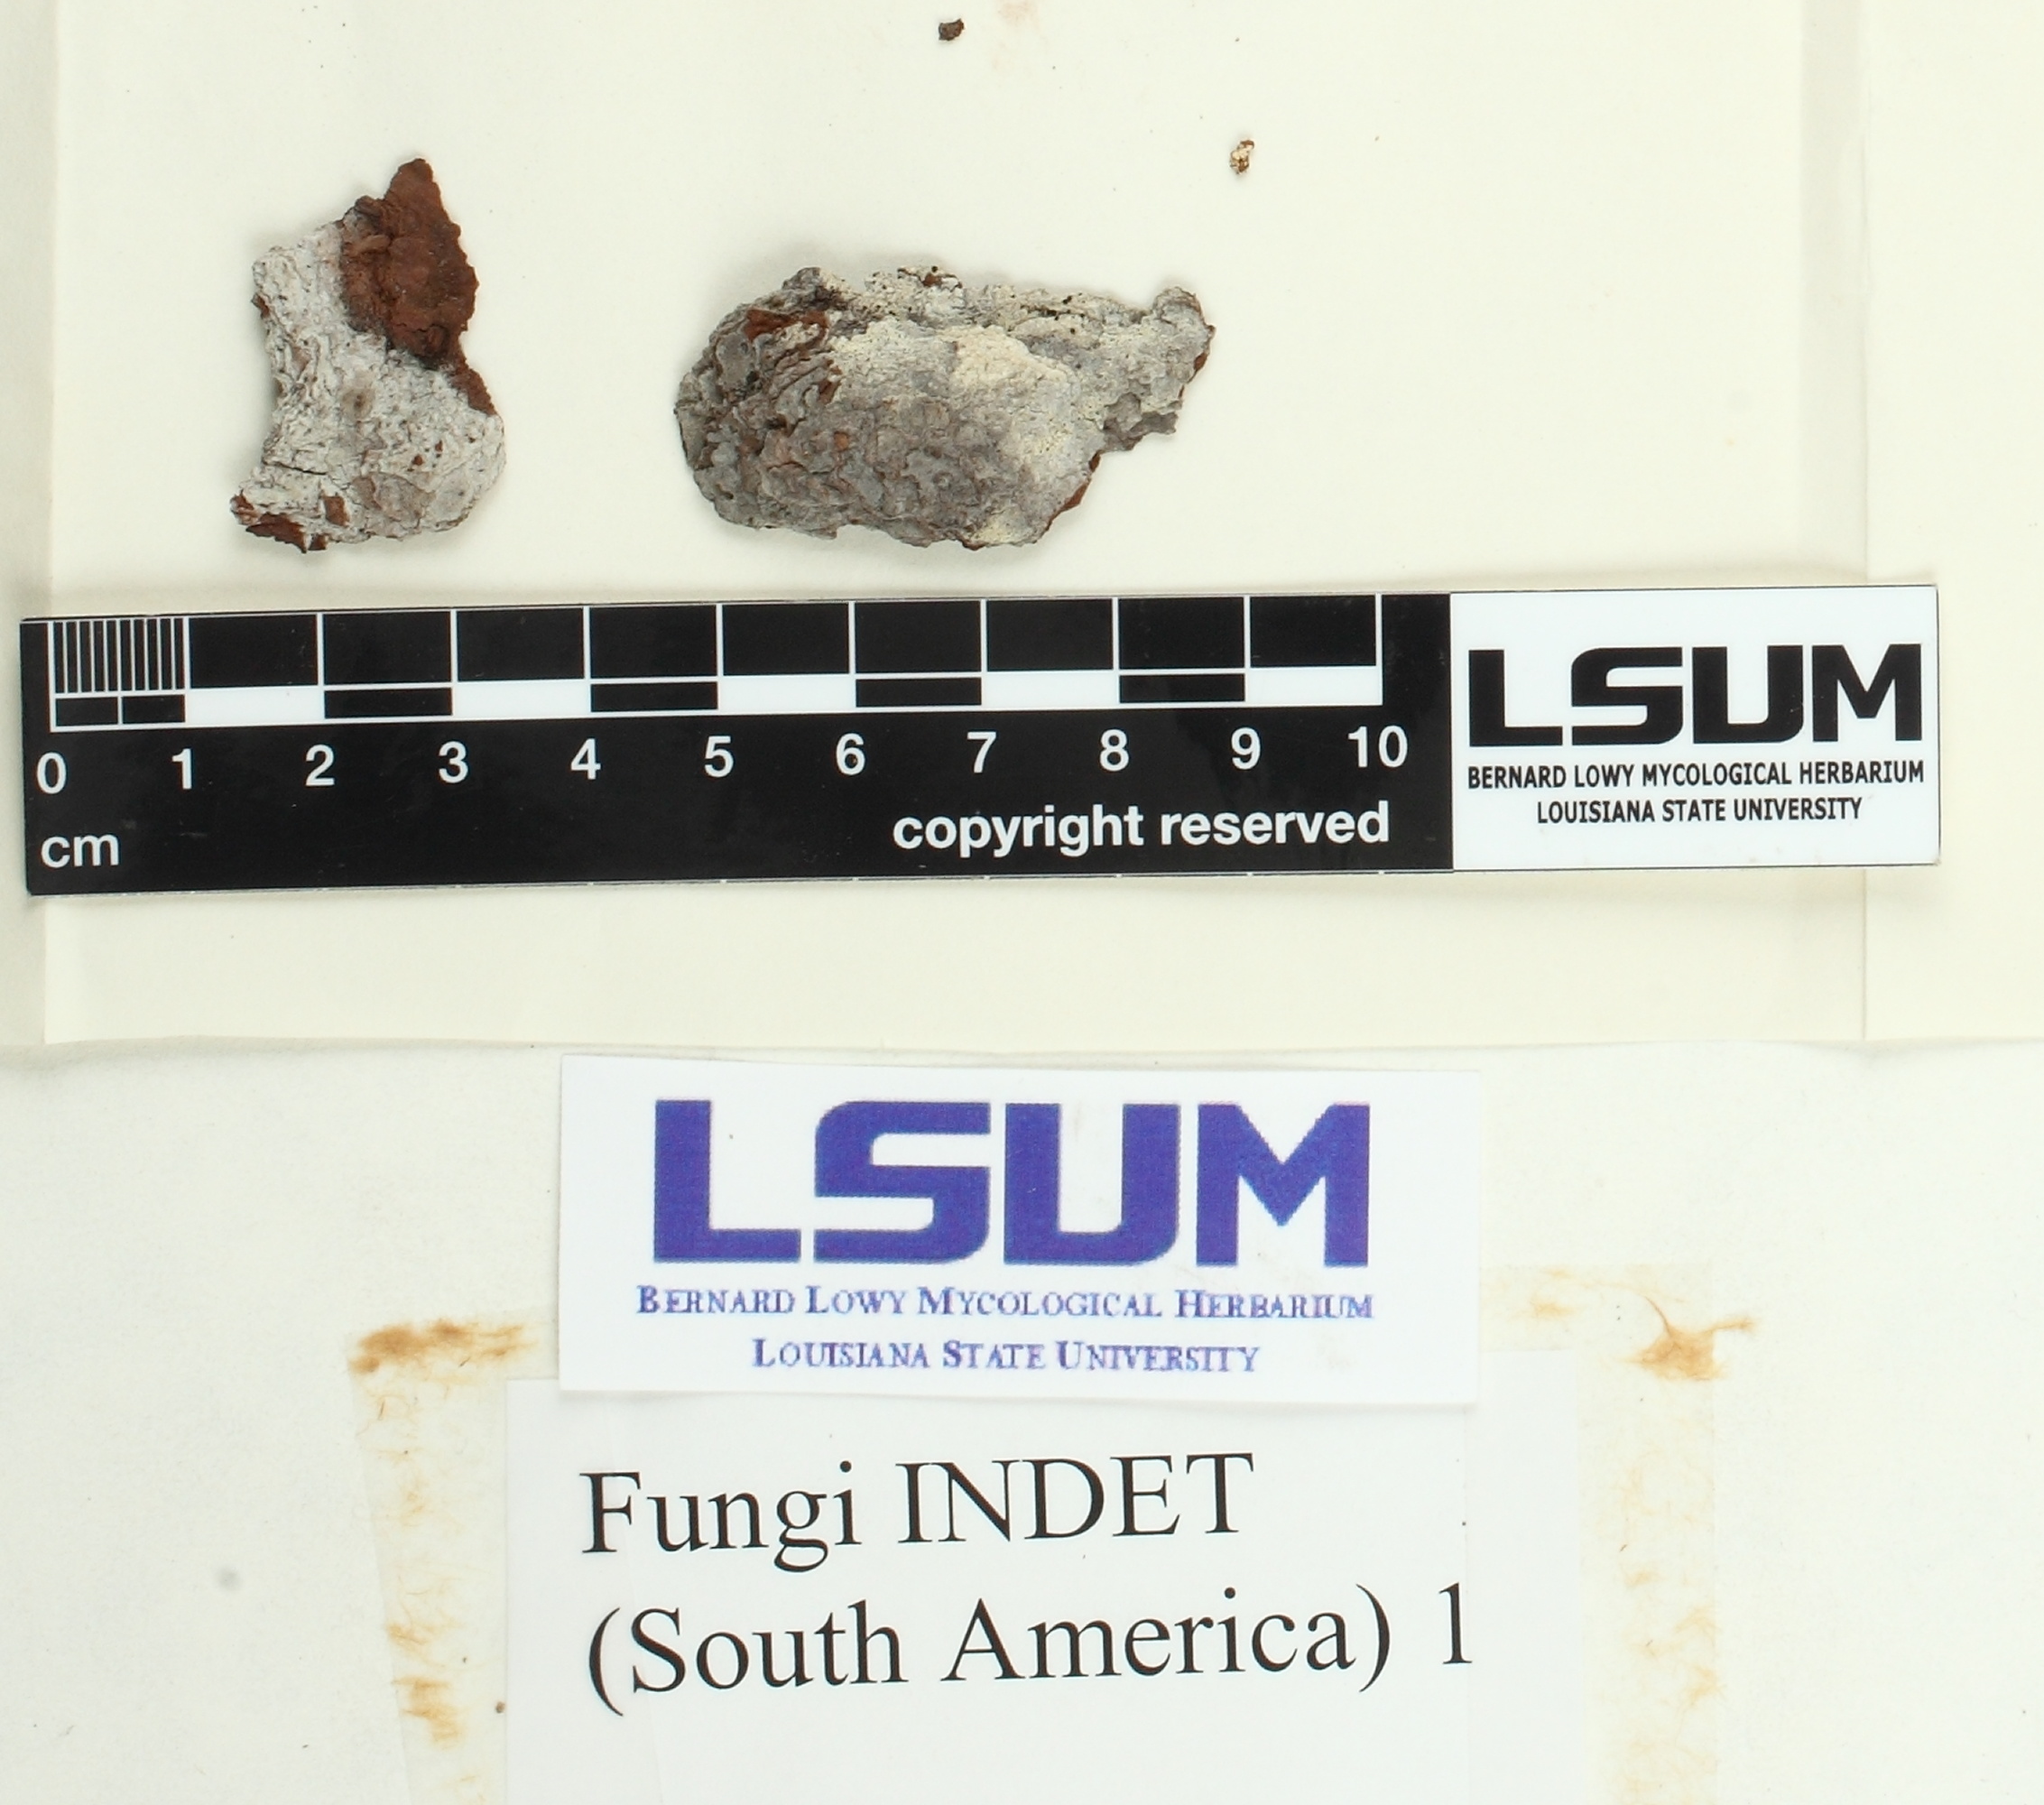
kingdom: Fungi
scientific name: Fungi
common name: Fungi
